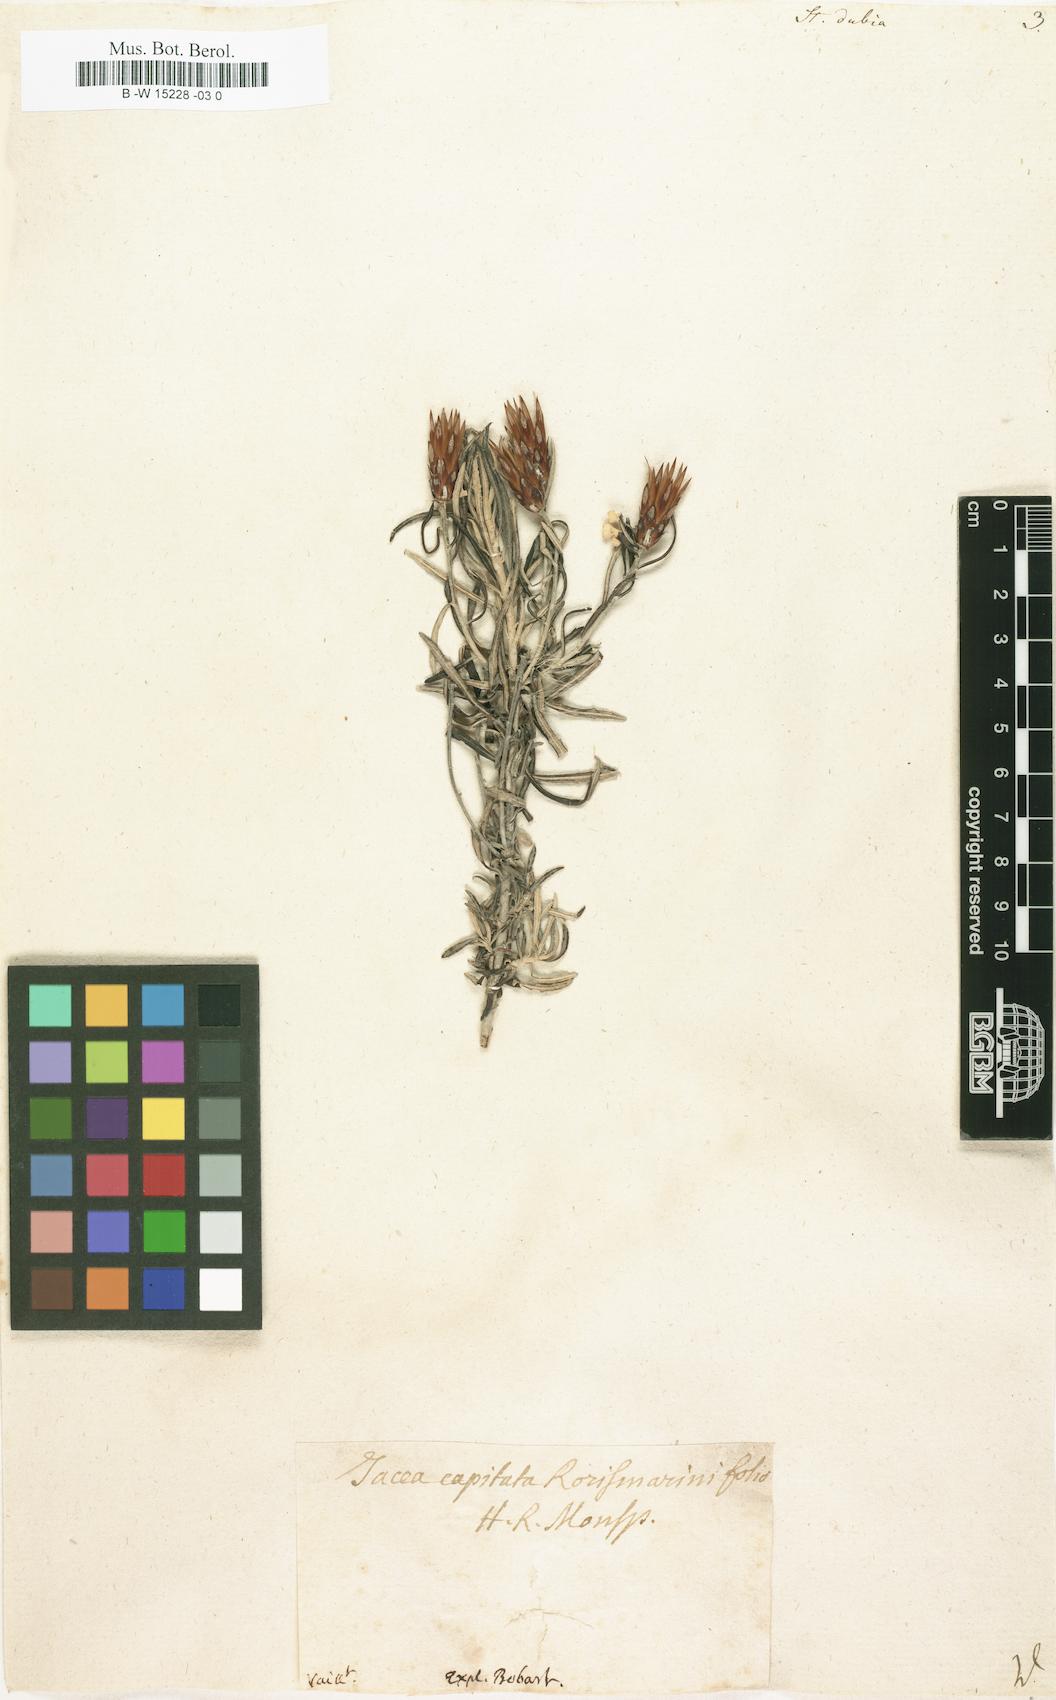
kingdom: Plantae
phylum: Tracheophyta
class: Magnoliopsida
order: Asterales
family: Asteraceae
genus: Staehelina
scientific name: Staehelina dubia
